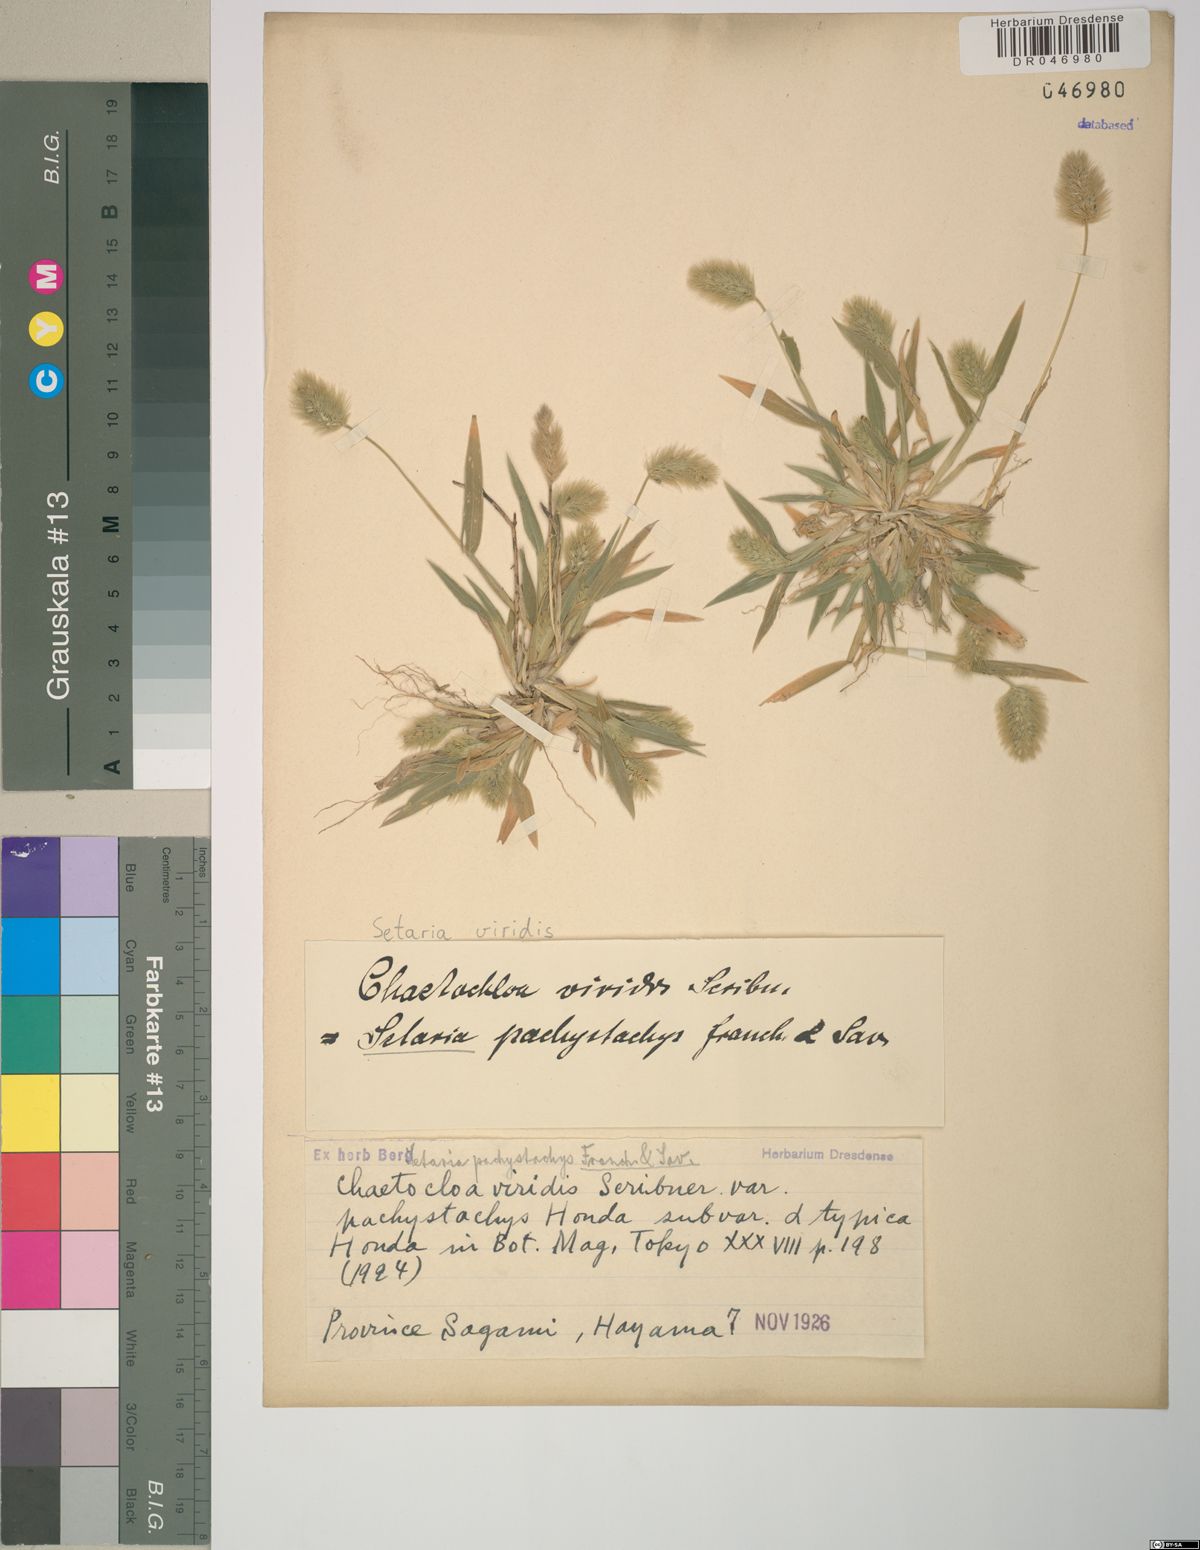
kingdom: Plantae
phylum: Tracheophyta
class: Liliopsida
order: Poales
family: Poaceae
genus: Setaria
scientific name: Setaria viridis
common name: Green bristlegrass
